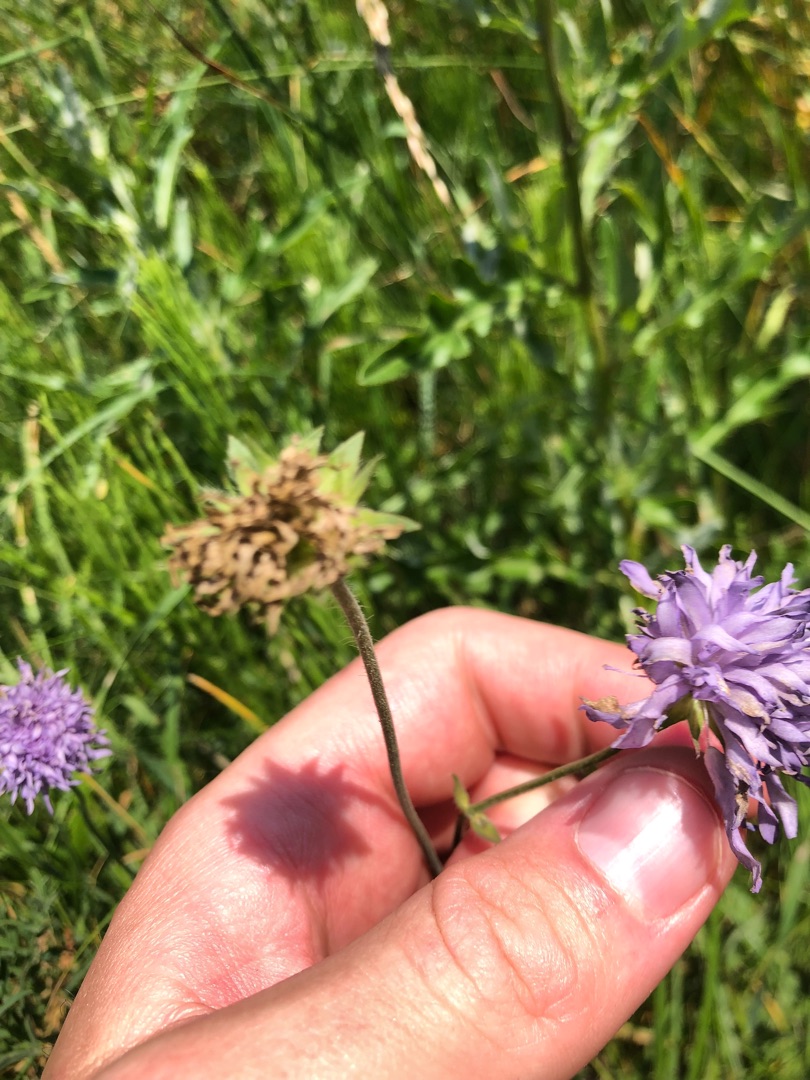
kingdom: Plantae
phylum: Tracheophyta
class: Magnoliopsida
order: Dipsacales
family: Caprifoliaceae
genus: Knautia
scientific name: Knautia arvensis
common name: Blåhat
